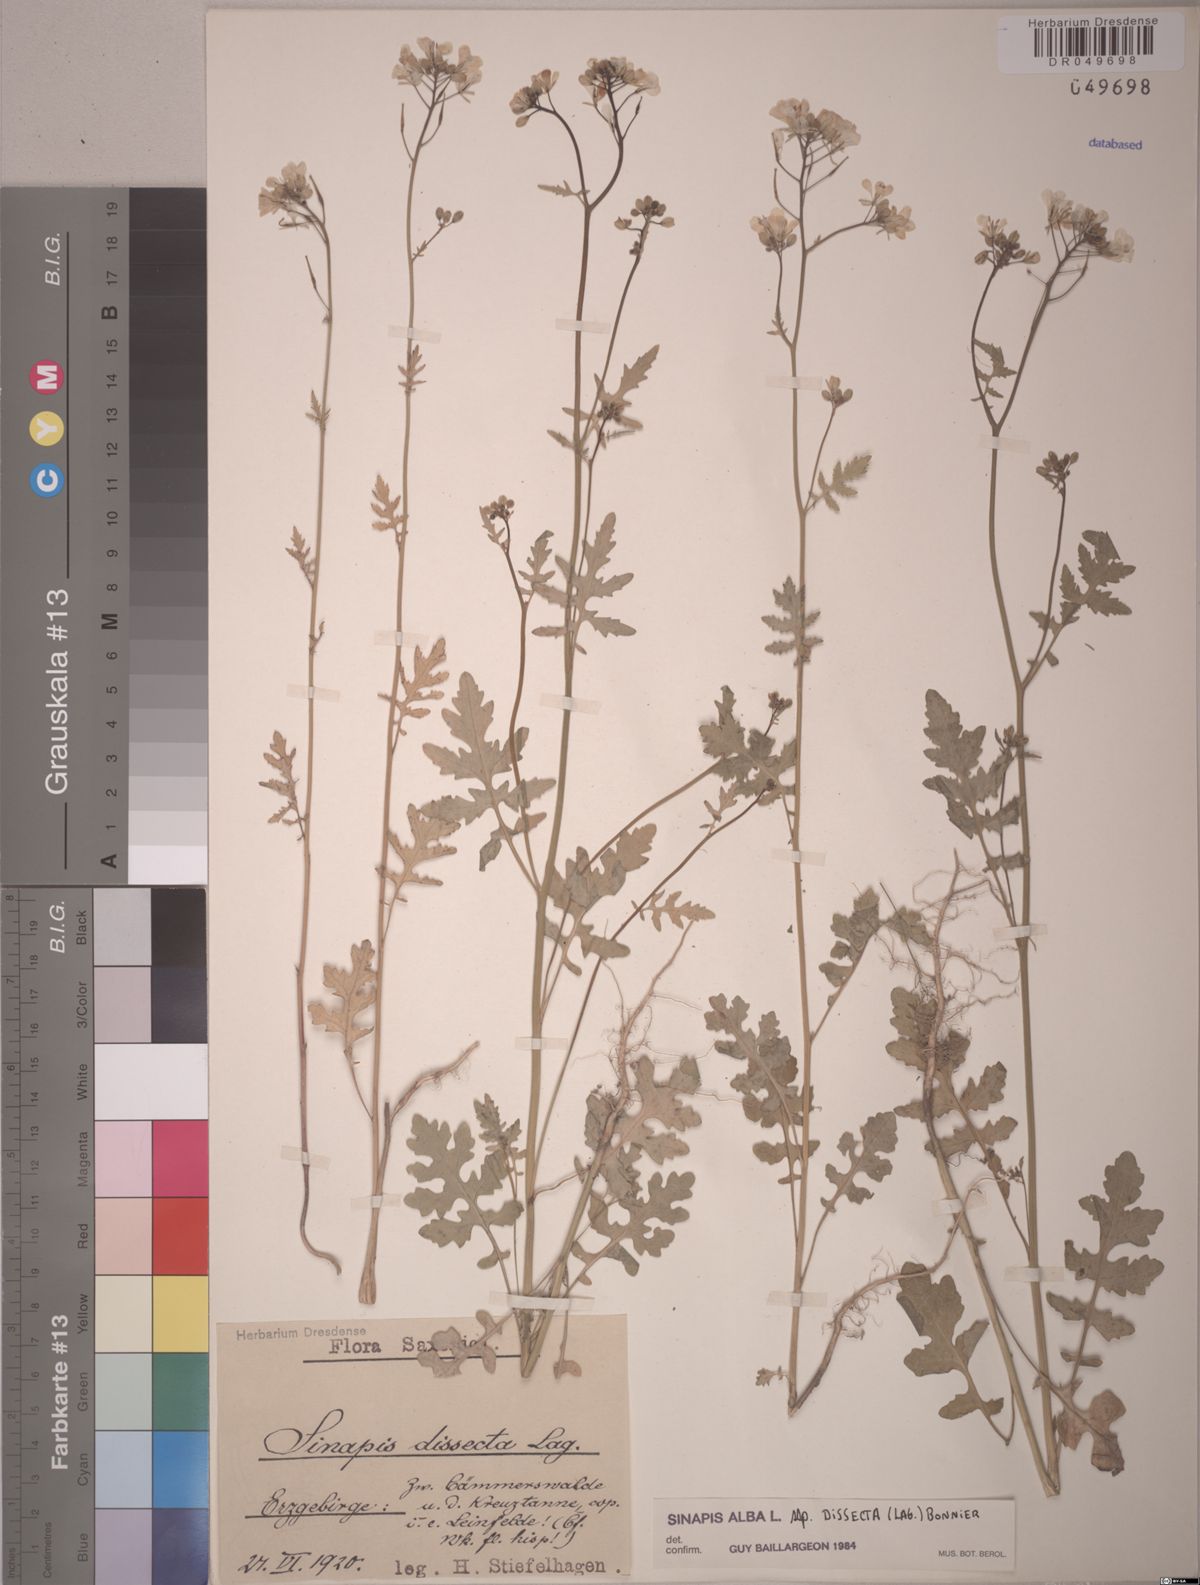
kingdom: Plantae
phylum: Tracheophyta
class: Magnoliopsida
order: Brassicales
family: Brassicaceae
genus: Sinapis
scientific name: Sinapis alba
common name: White mustard
